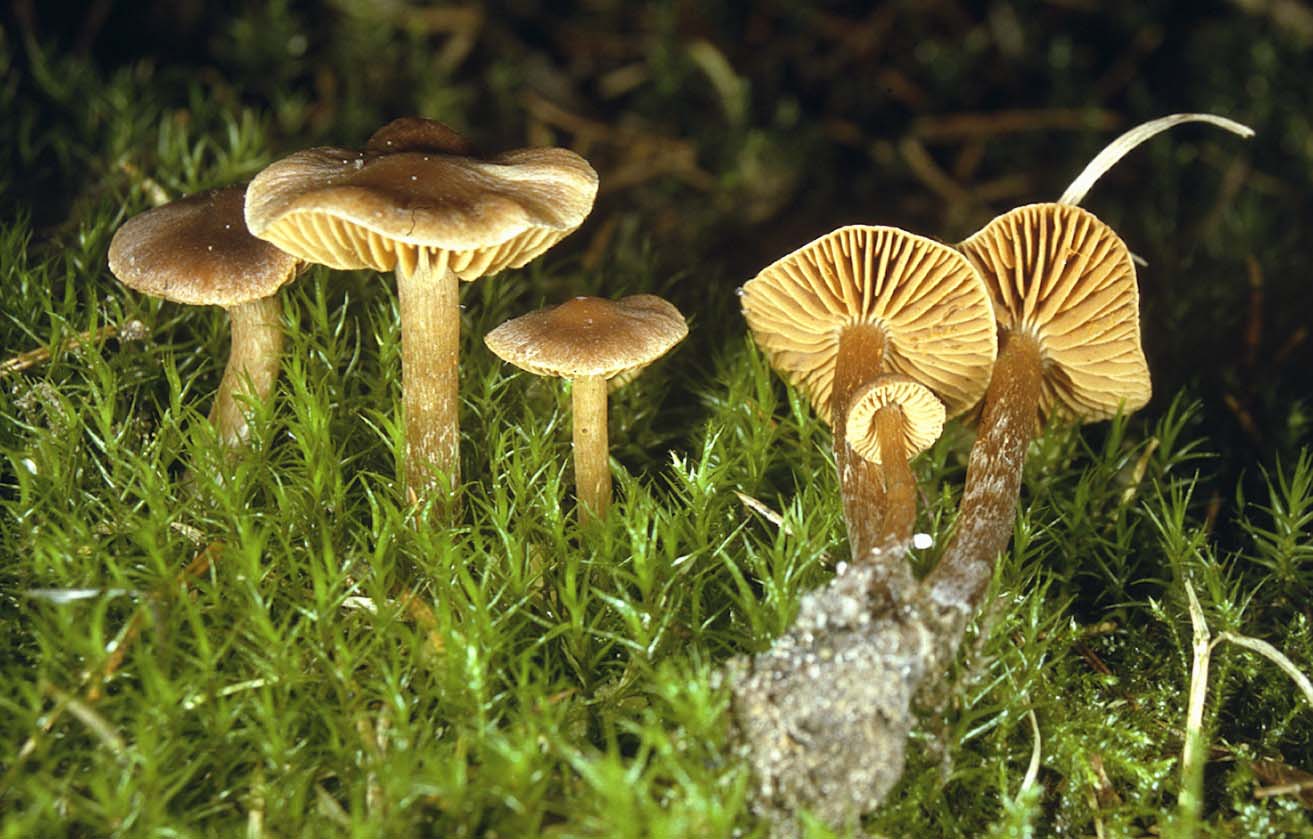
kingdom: Fungi
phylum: Basidiomycota
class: Agaricomycetes
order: Agaricales
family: Cortinariaceae
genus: Cortinarius
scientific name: Cortinarius sphagnoravus
